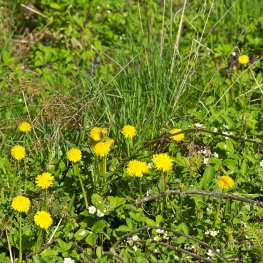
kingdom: Animalia
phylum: Arthropoda
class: Insecta
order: Lepidoptera
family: Nymphalidae
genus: Vanessa
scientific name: Vanessa atalanta
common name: Red Admiral
